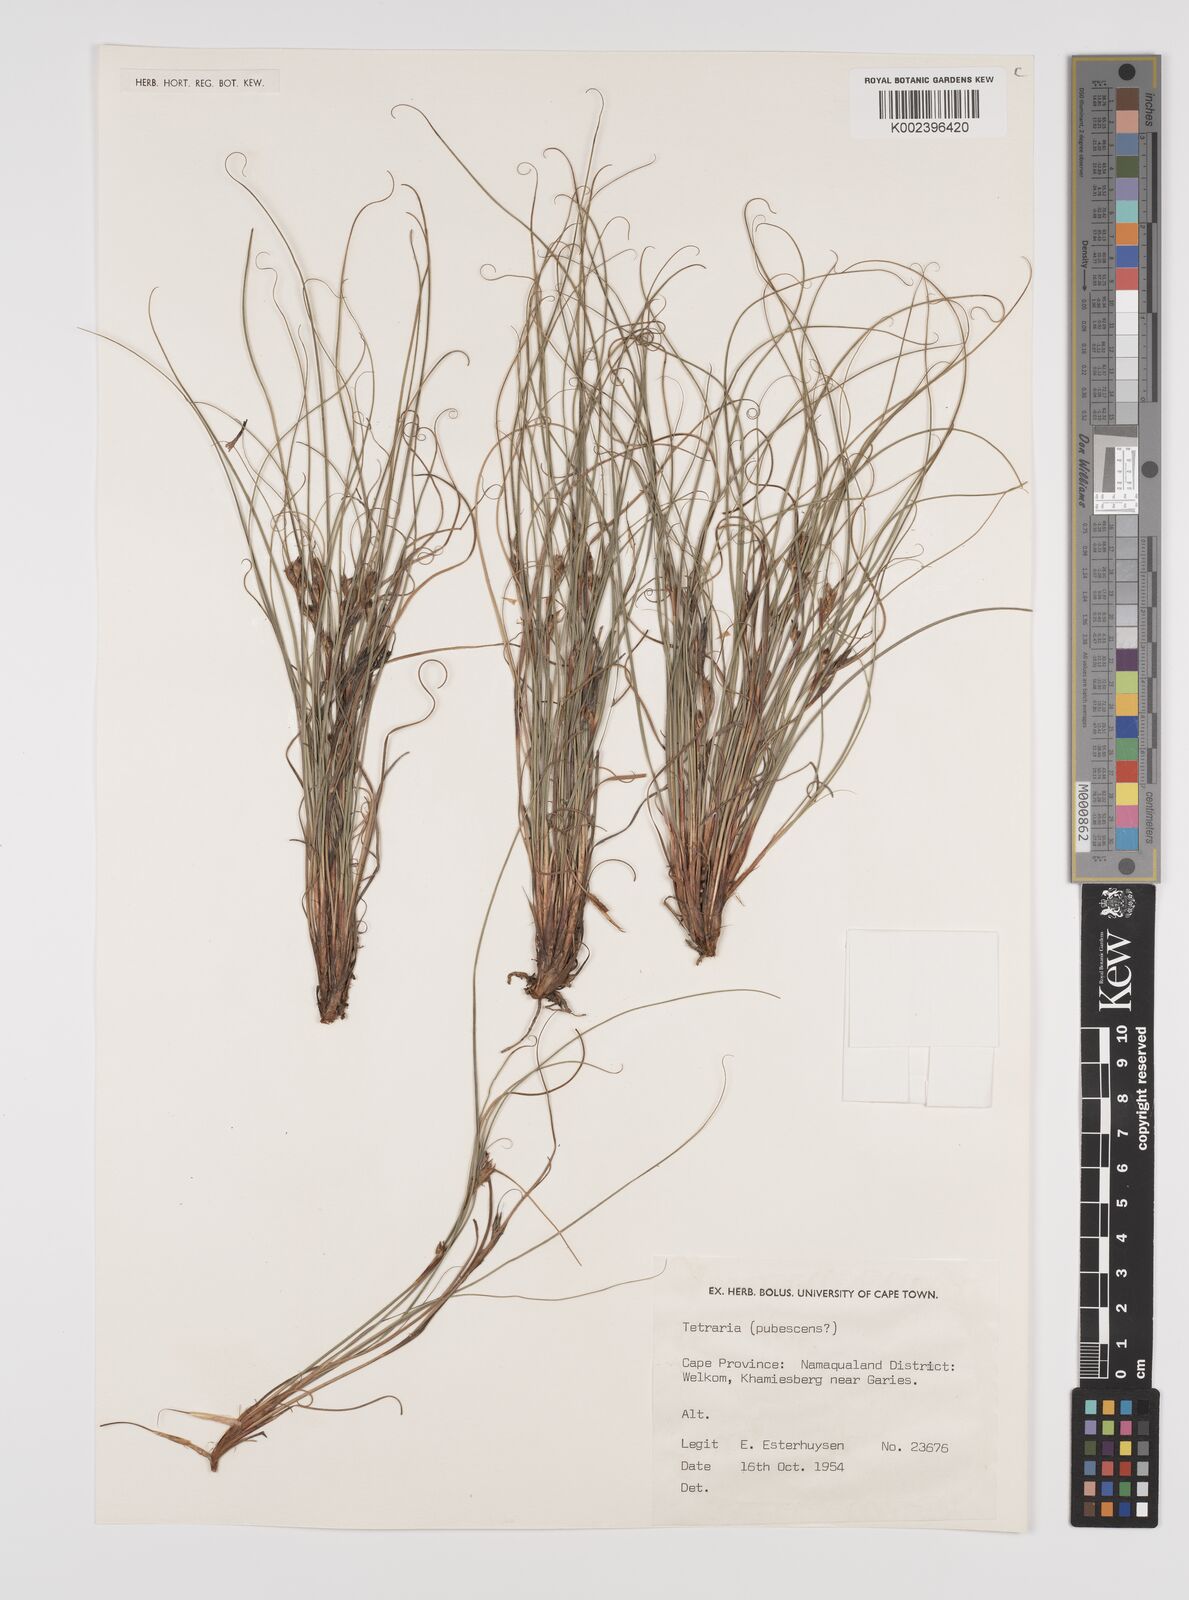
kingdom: Plantae
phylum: Tracheophyta
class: Liliopsida
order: Poales
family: Cyperaceae
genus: Tetraria
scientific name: Tetraria
